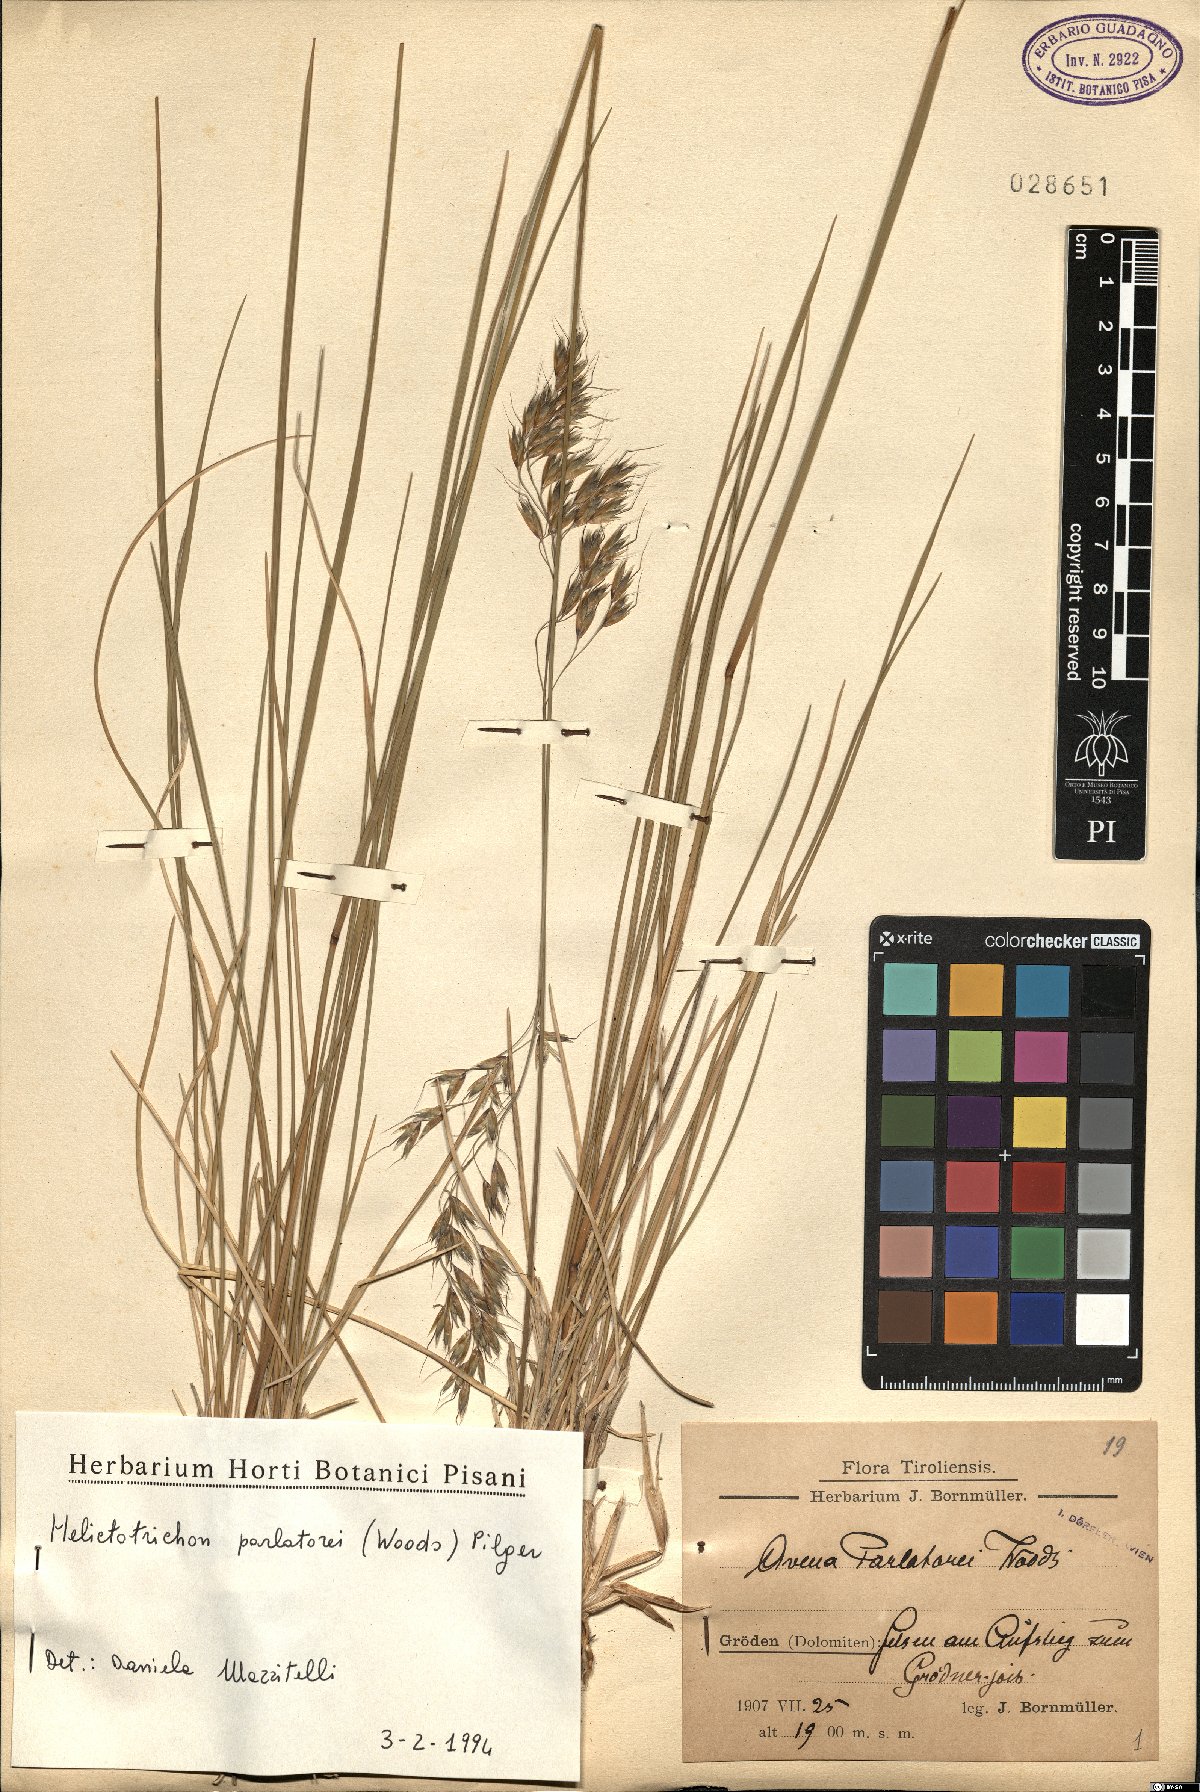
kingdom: Plantae
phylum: Tracheophyta
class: Liliopsida
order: Poales
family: Poaceae
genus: Helictotrichon
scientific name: Helictotrichon parlatorei
